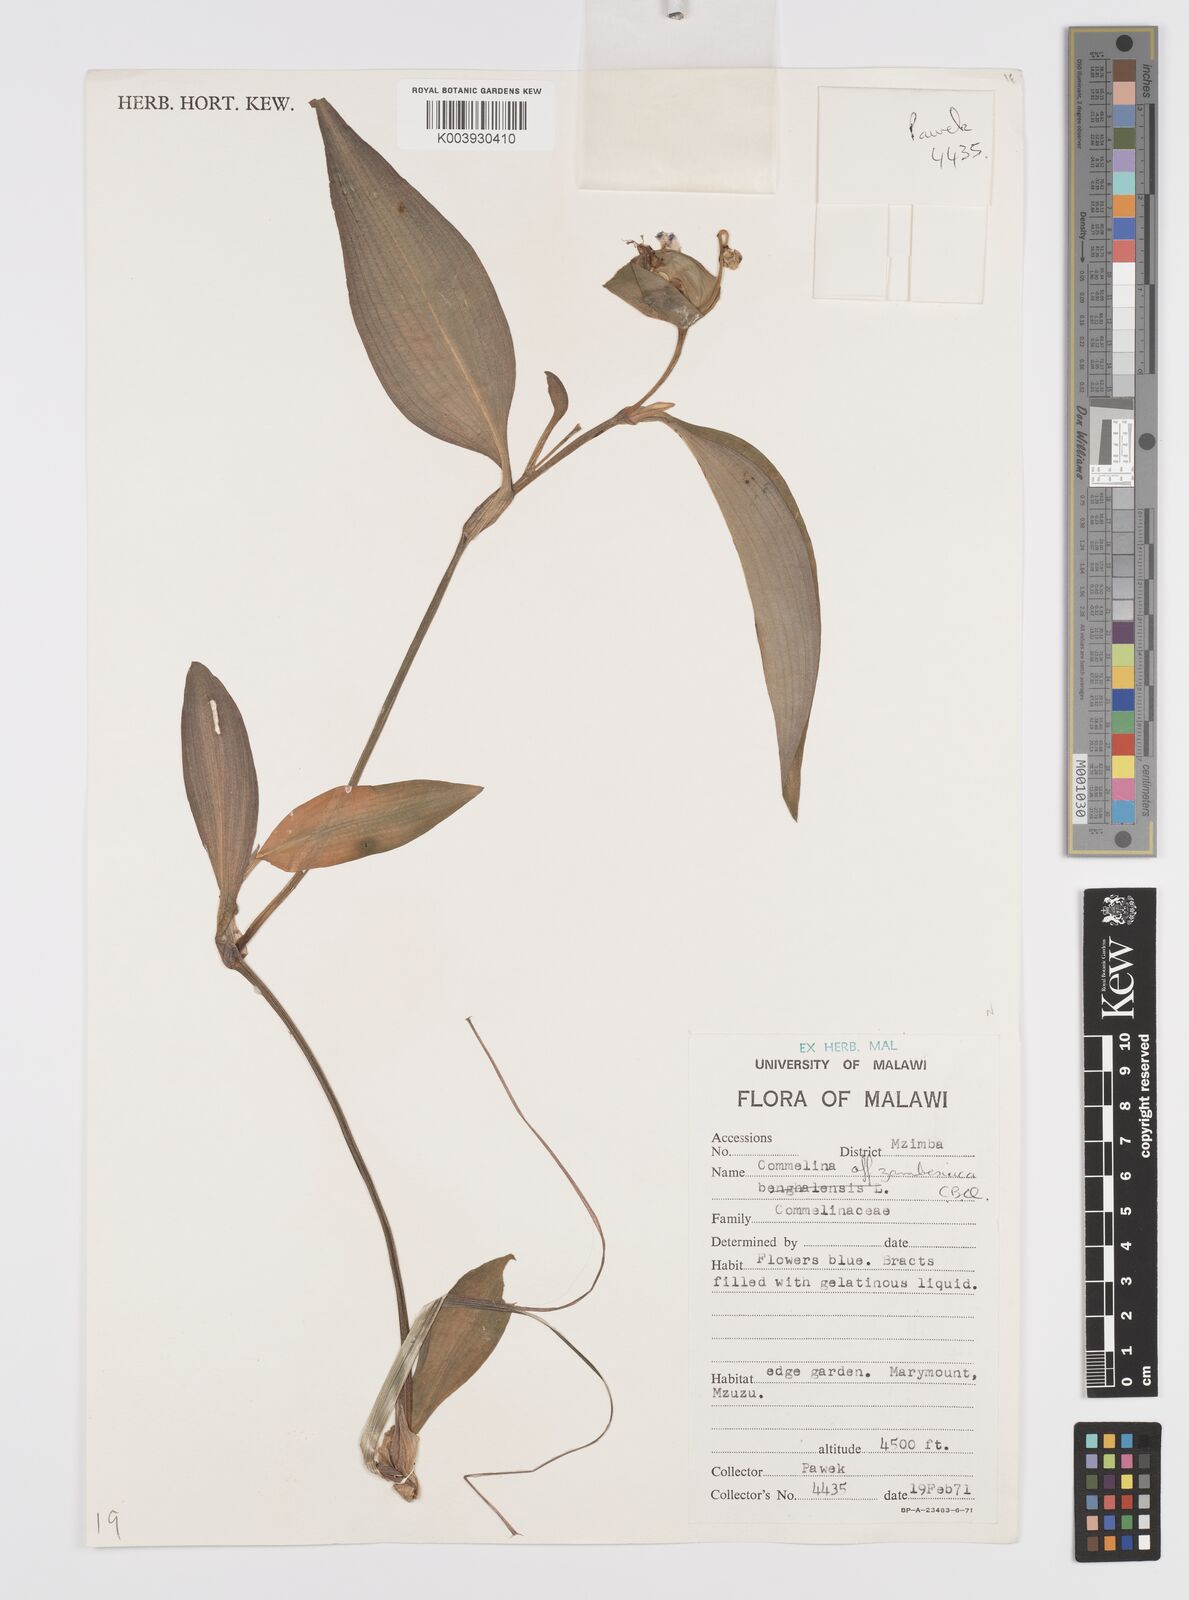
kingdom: Plantae
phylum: Tracheophyta
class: Liliopsida
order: Commelinales
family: Commelinaceae
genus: Commelina
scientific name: Commelina zambesica
